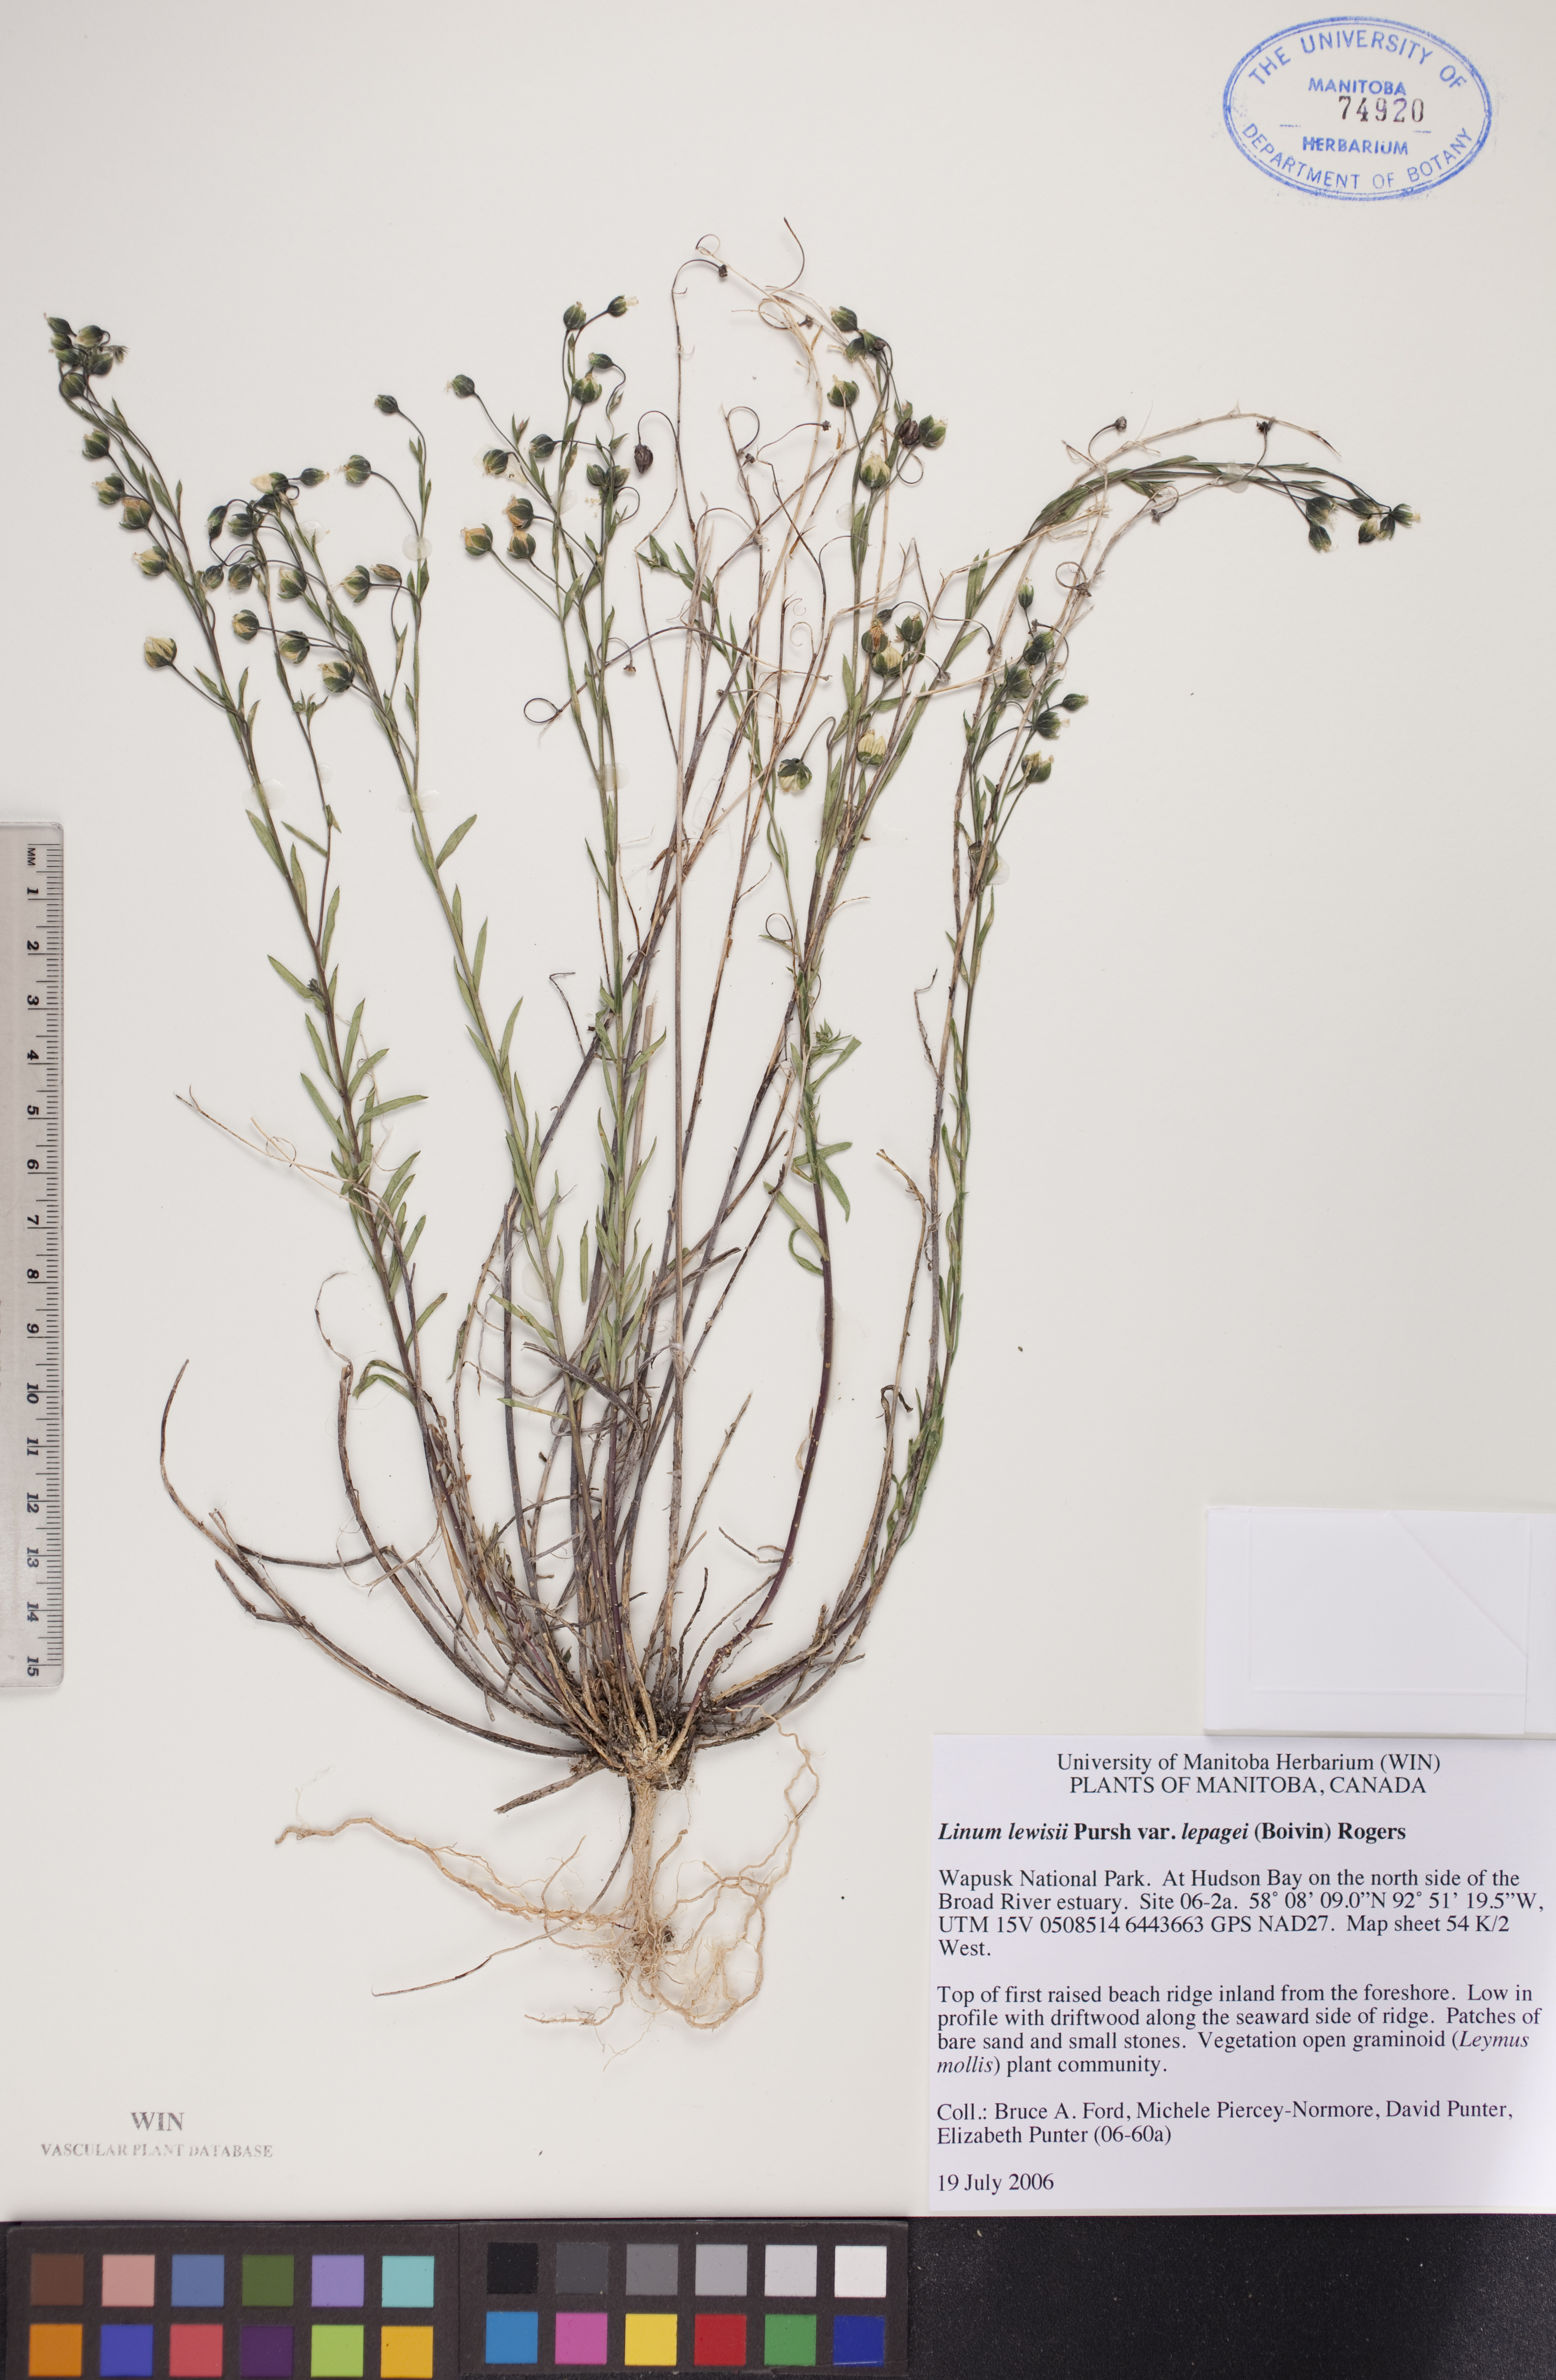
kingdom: Plantae
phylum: Tracheophyta
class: Magnoliopsida
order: Malpighiales
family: Linaceae
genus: Linum
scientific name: Linum lewisii
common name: Prairie flax
